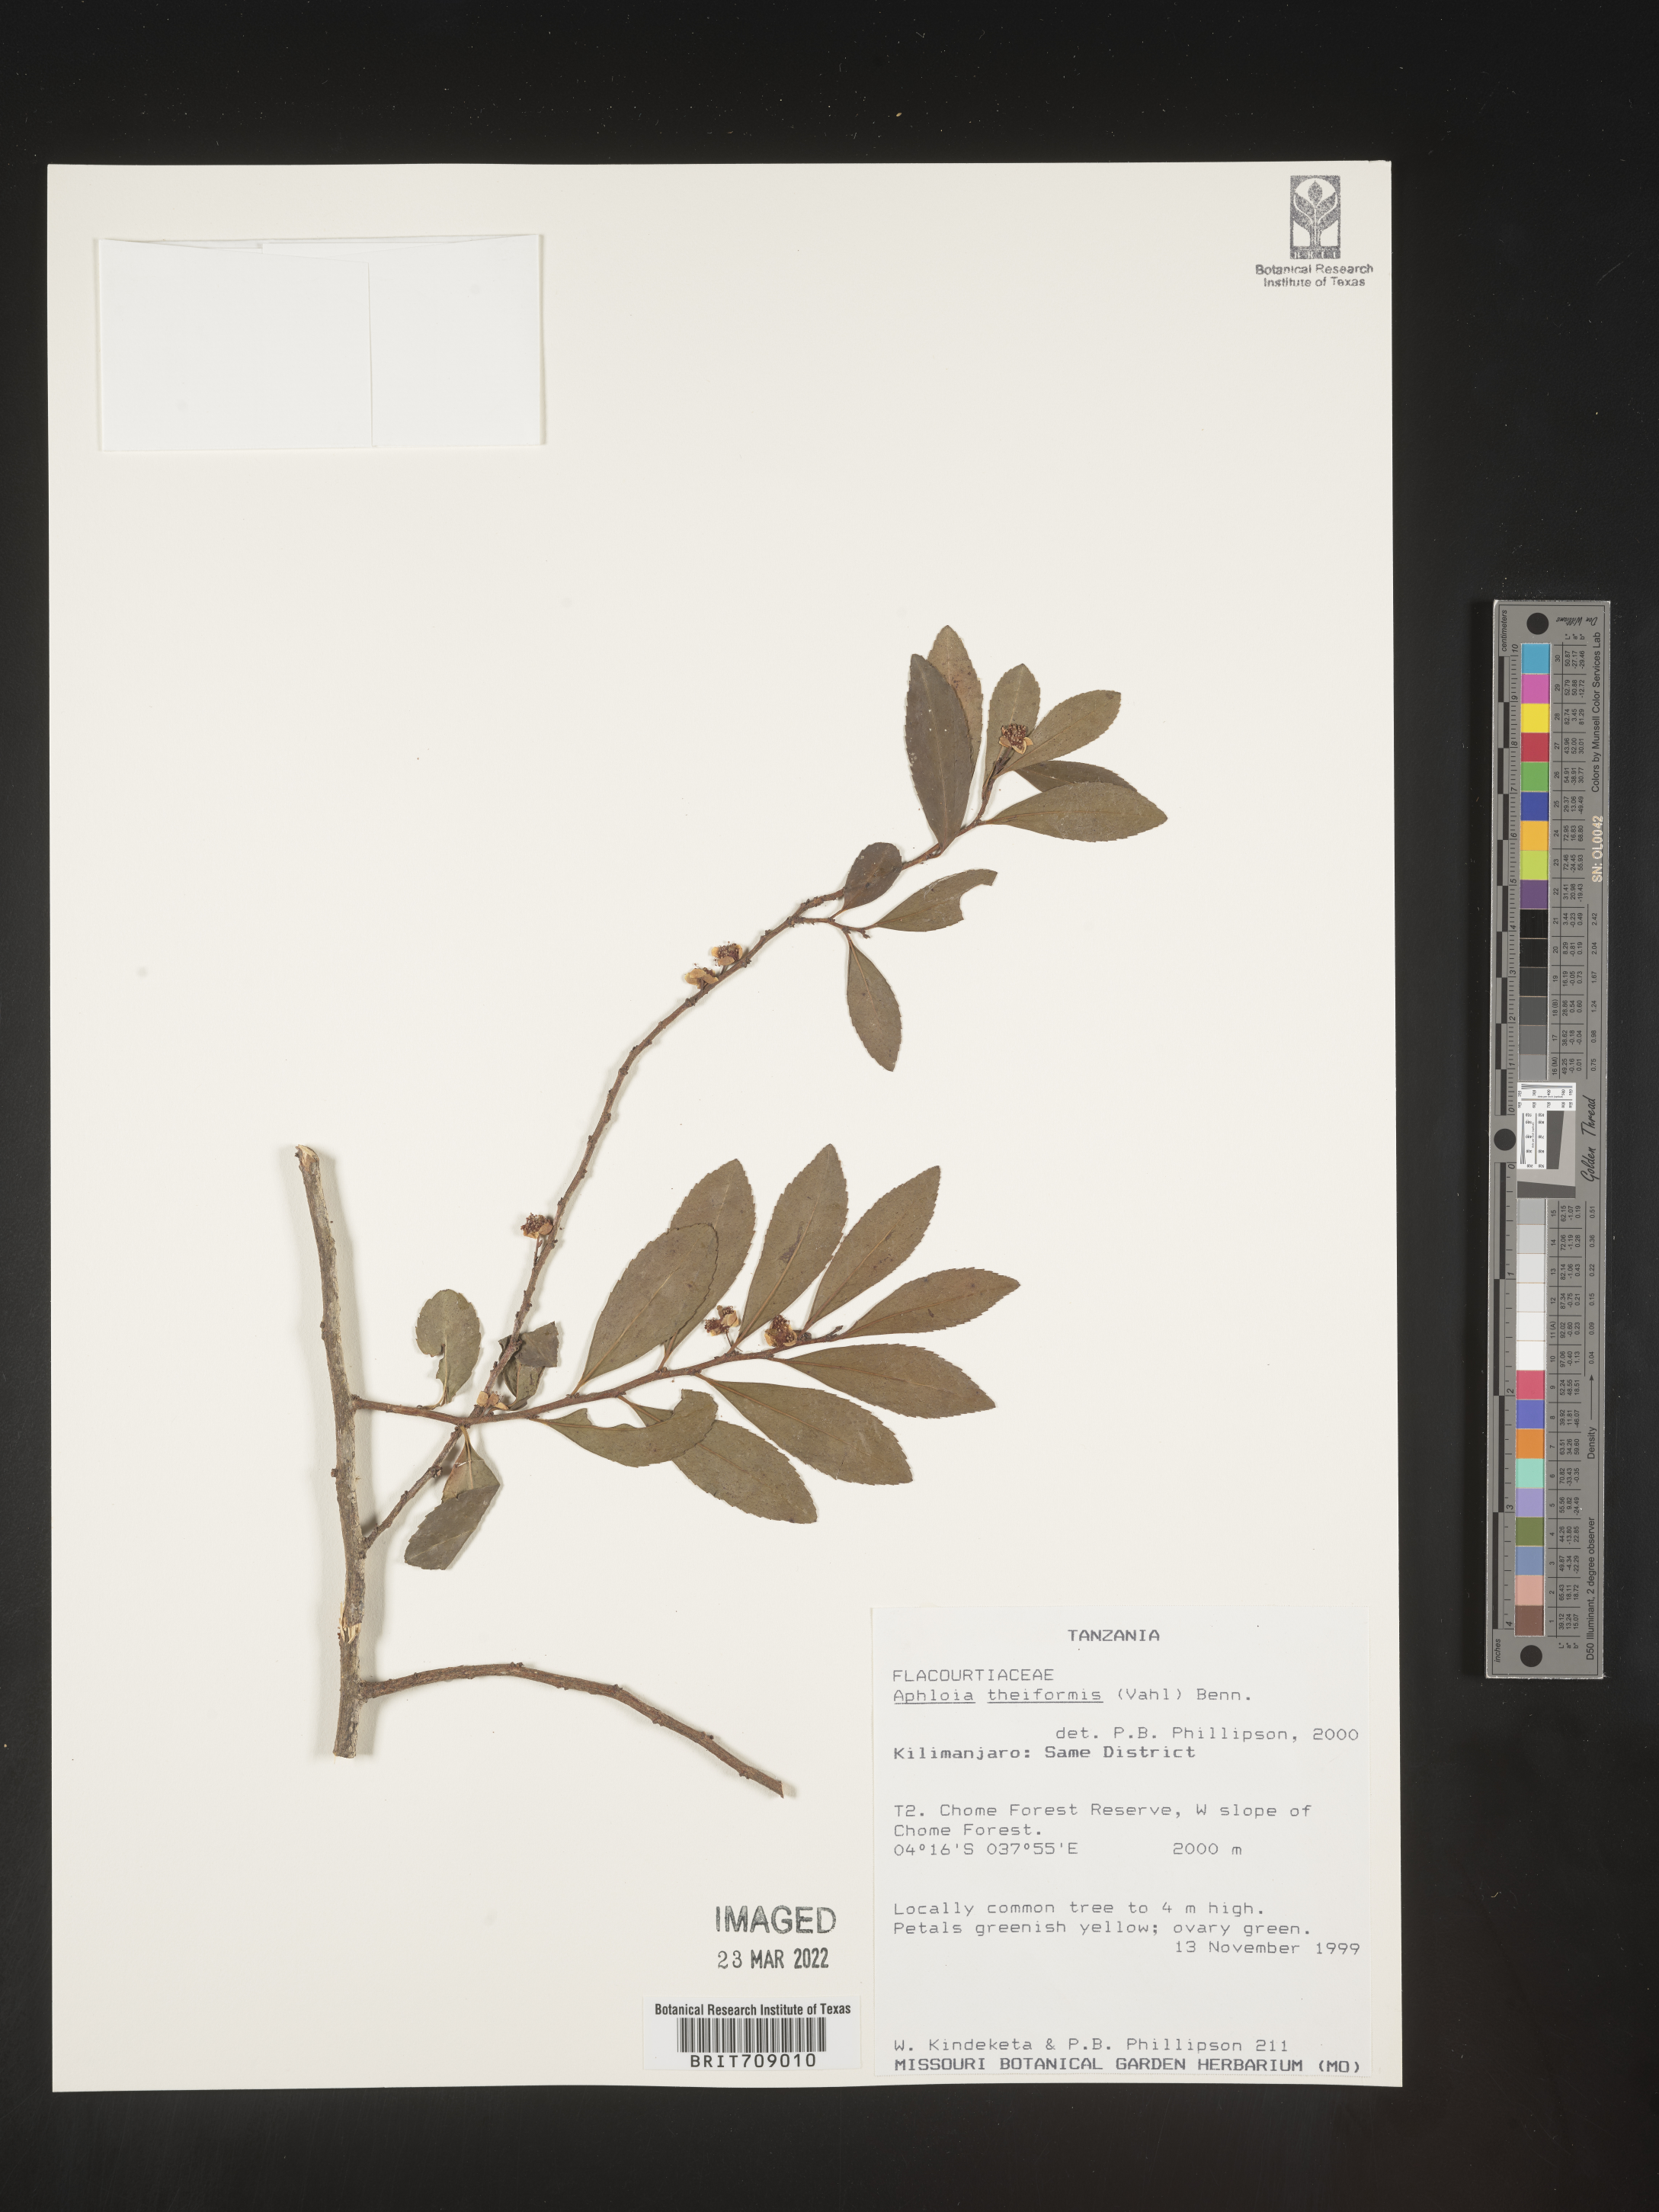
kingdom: Plantae
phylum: Tracheophyta
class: Magnoliopsida
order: Crossosomatales
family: Aphloiaceae
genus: Aphloia
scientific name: Aphloia
